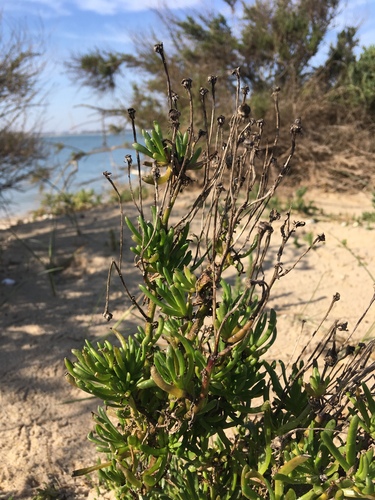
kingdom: Plantae
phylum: Tracheophyta
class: Magnoliopsida
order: Asterales
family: Asteraceae
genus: Limbarda
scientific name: Limbarda crithmoides
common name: Golden samphire
